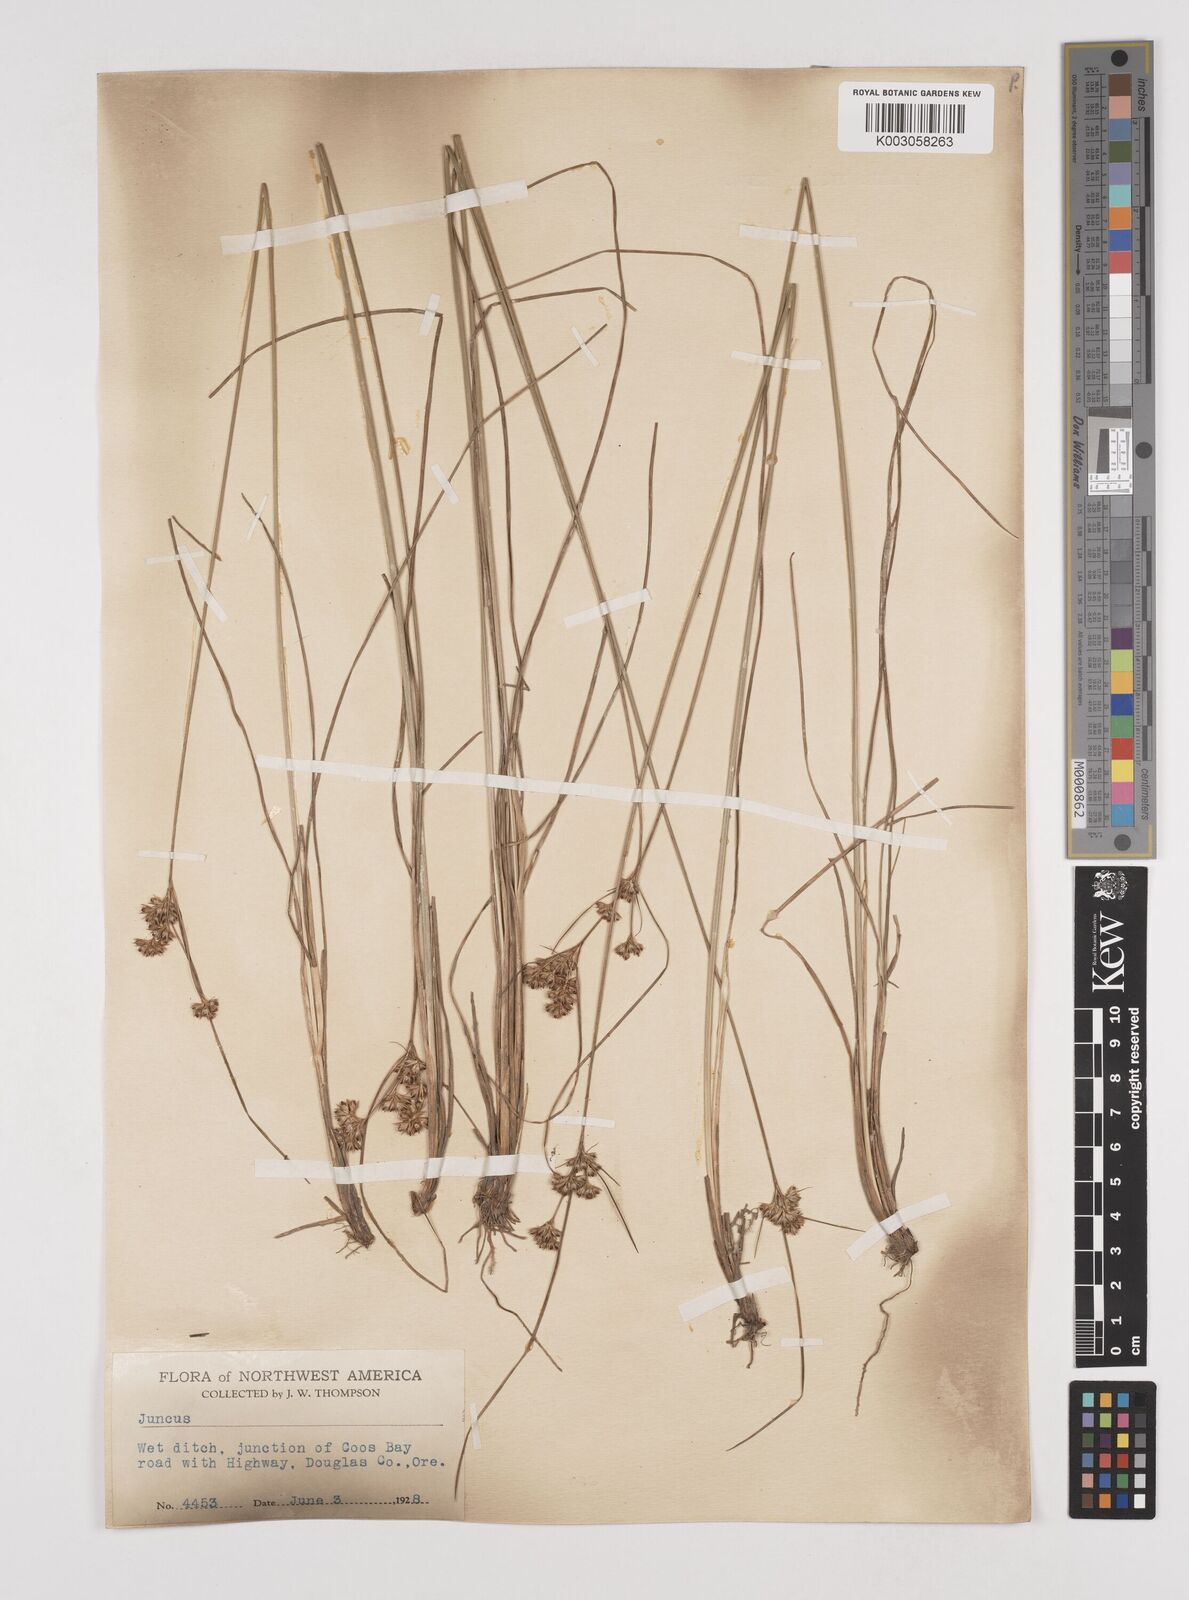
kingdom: Plantae
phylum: Tracheophyta
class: Liliopsida
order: Poales
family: Juncaceae
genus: Juncus
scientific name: Juncus
